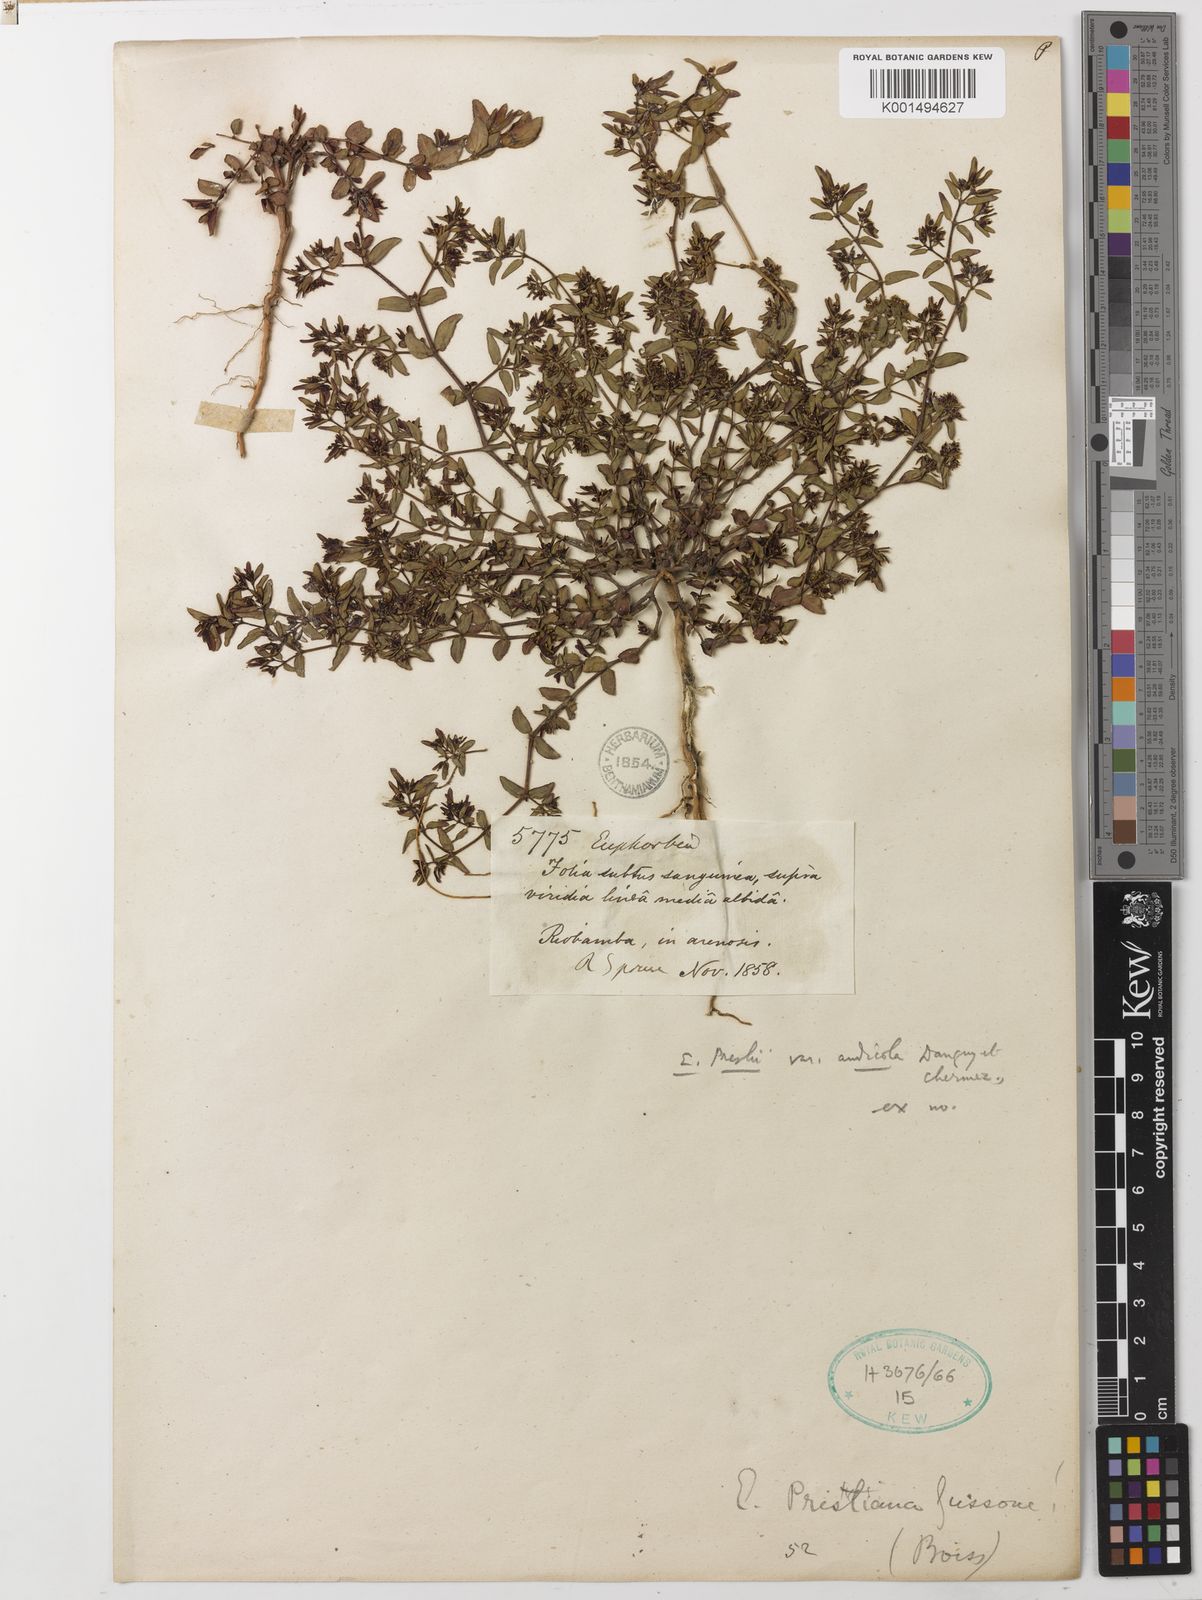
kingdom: Plantae
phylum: Tracheophyta
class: Magnoliopsida
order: Malpighiales
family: Euphorbiaceae
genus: Euphorbia
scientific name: Euphorbia nutans
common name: Eyebane
